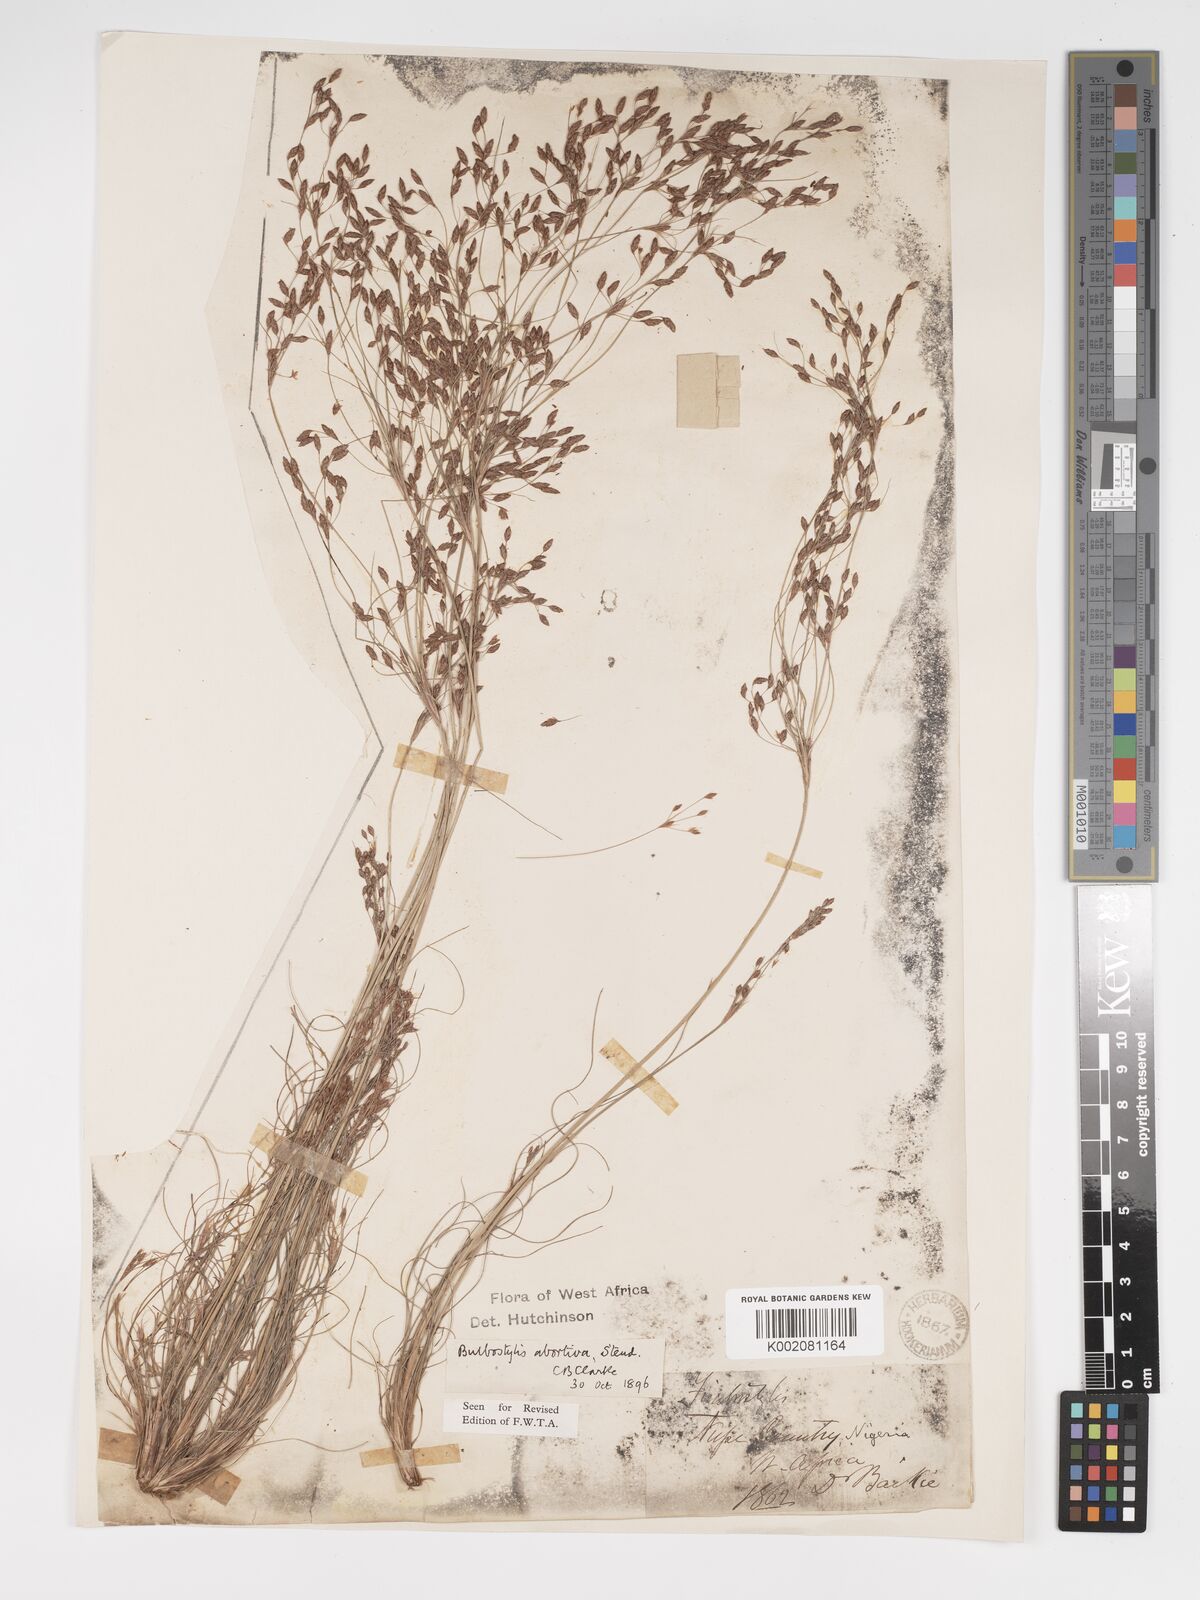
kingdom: Plantae
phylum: Tracheophyta
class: Liliopsida
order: Poales
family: Cyperaceae
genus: Bulbostylis
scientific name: Bulbostylis abortiva
